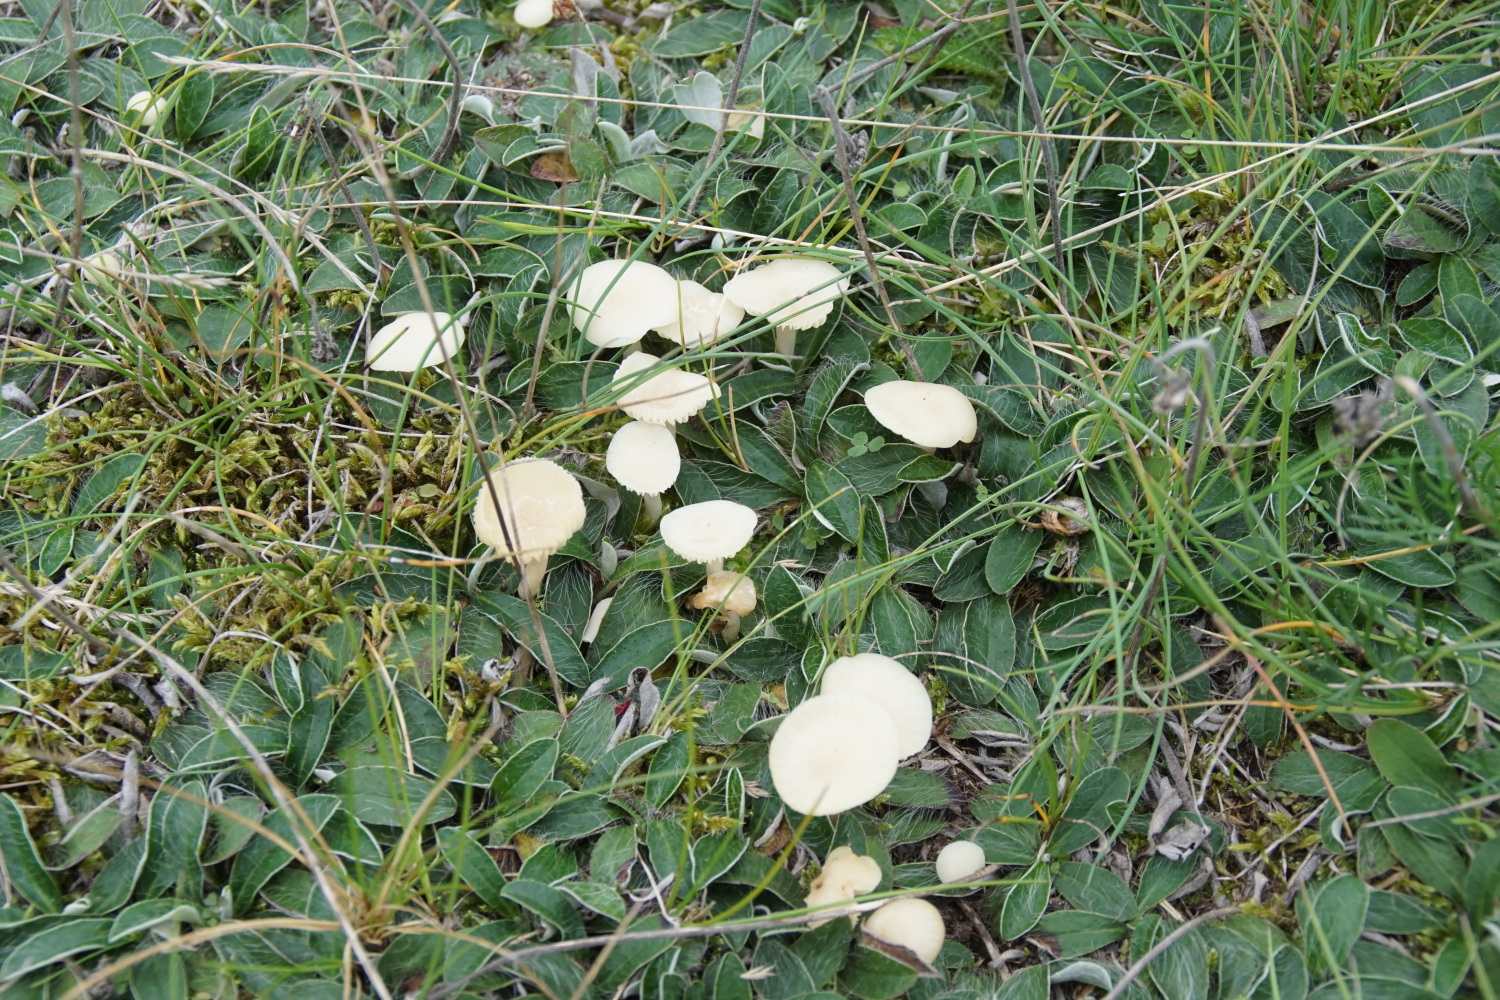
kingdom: Fungi
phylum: Basidiomycota
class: Agaricomycetes
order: Agaricales
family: Hygrophoraceae
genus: Cuphophyllus
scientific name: Cuphophyllus russocoriaceus
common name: ruslæder-vokshat
